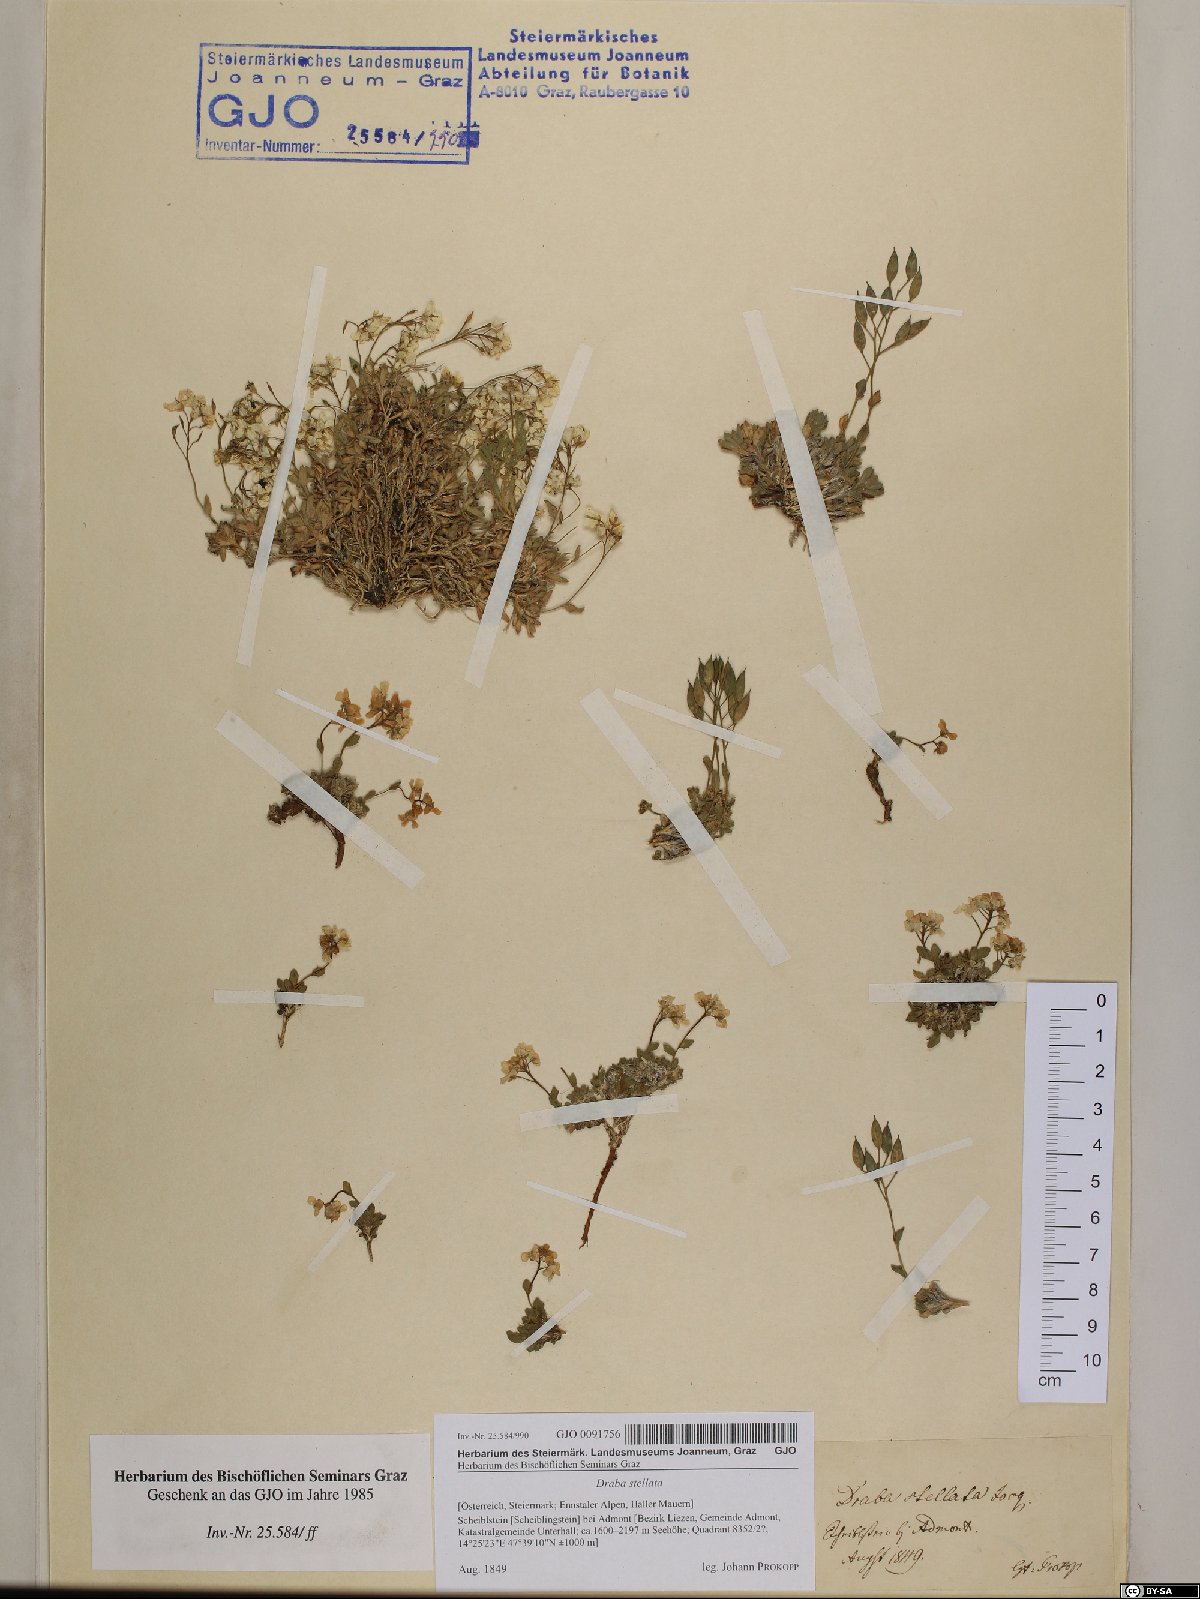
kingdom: Plantae
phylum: Tracheophyta
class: Magnoliopsida
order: Brassicales
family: Brassicaceae
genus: Draba
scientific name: Draba stellata
